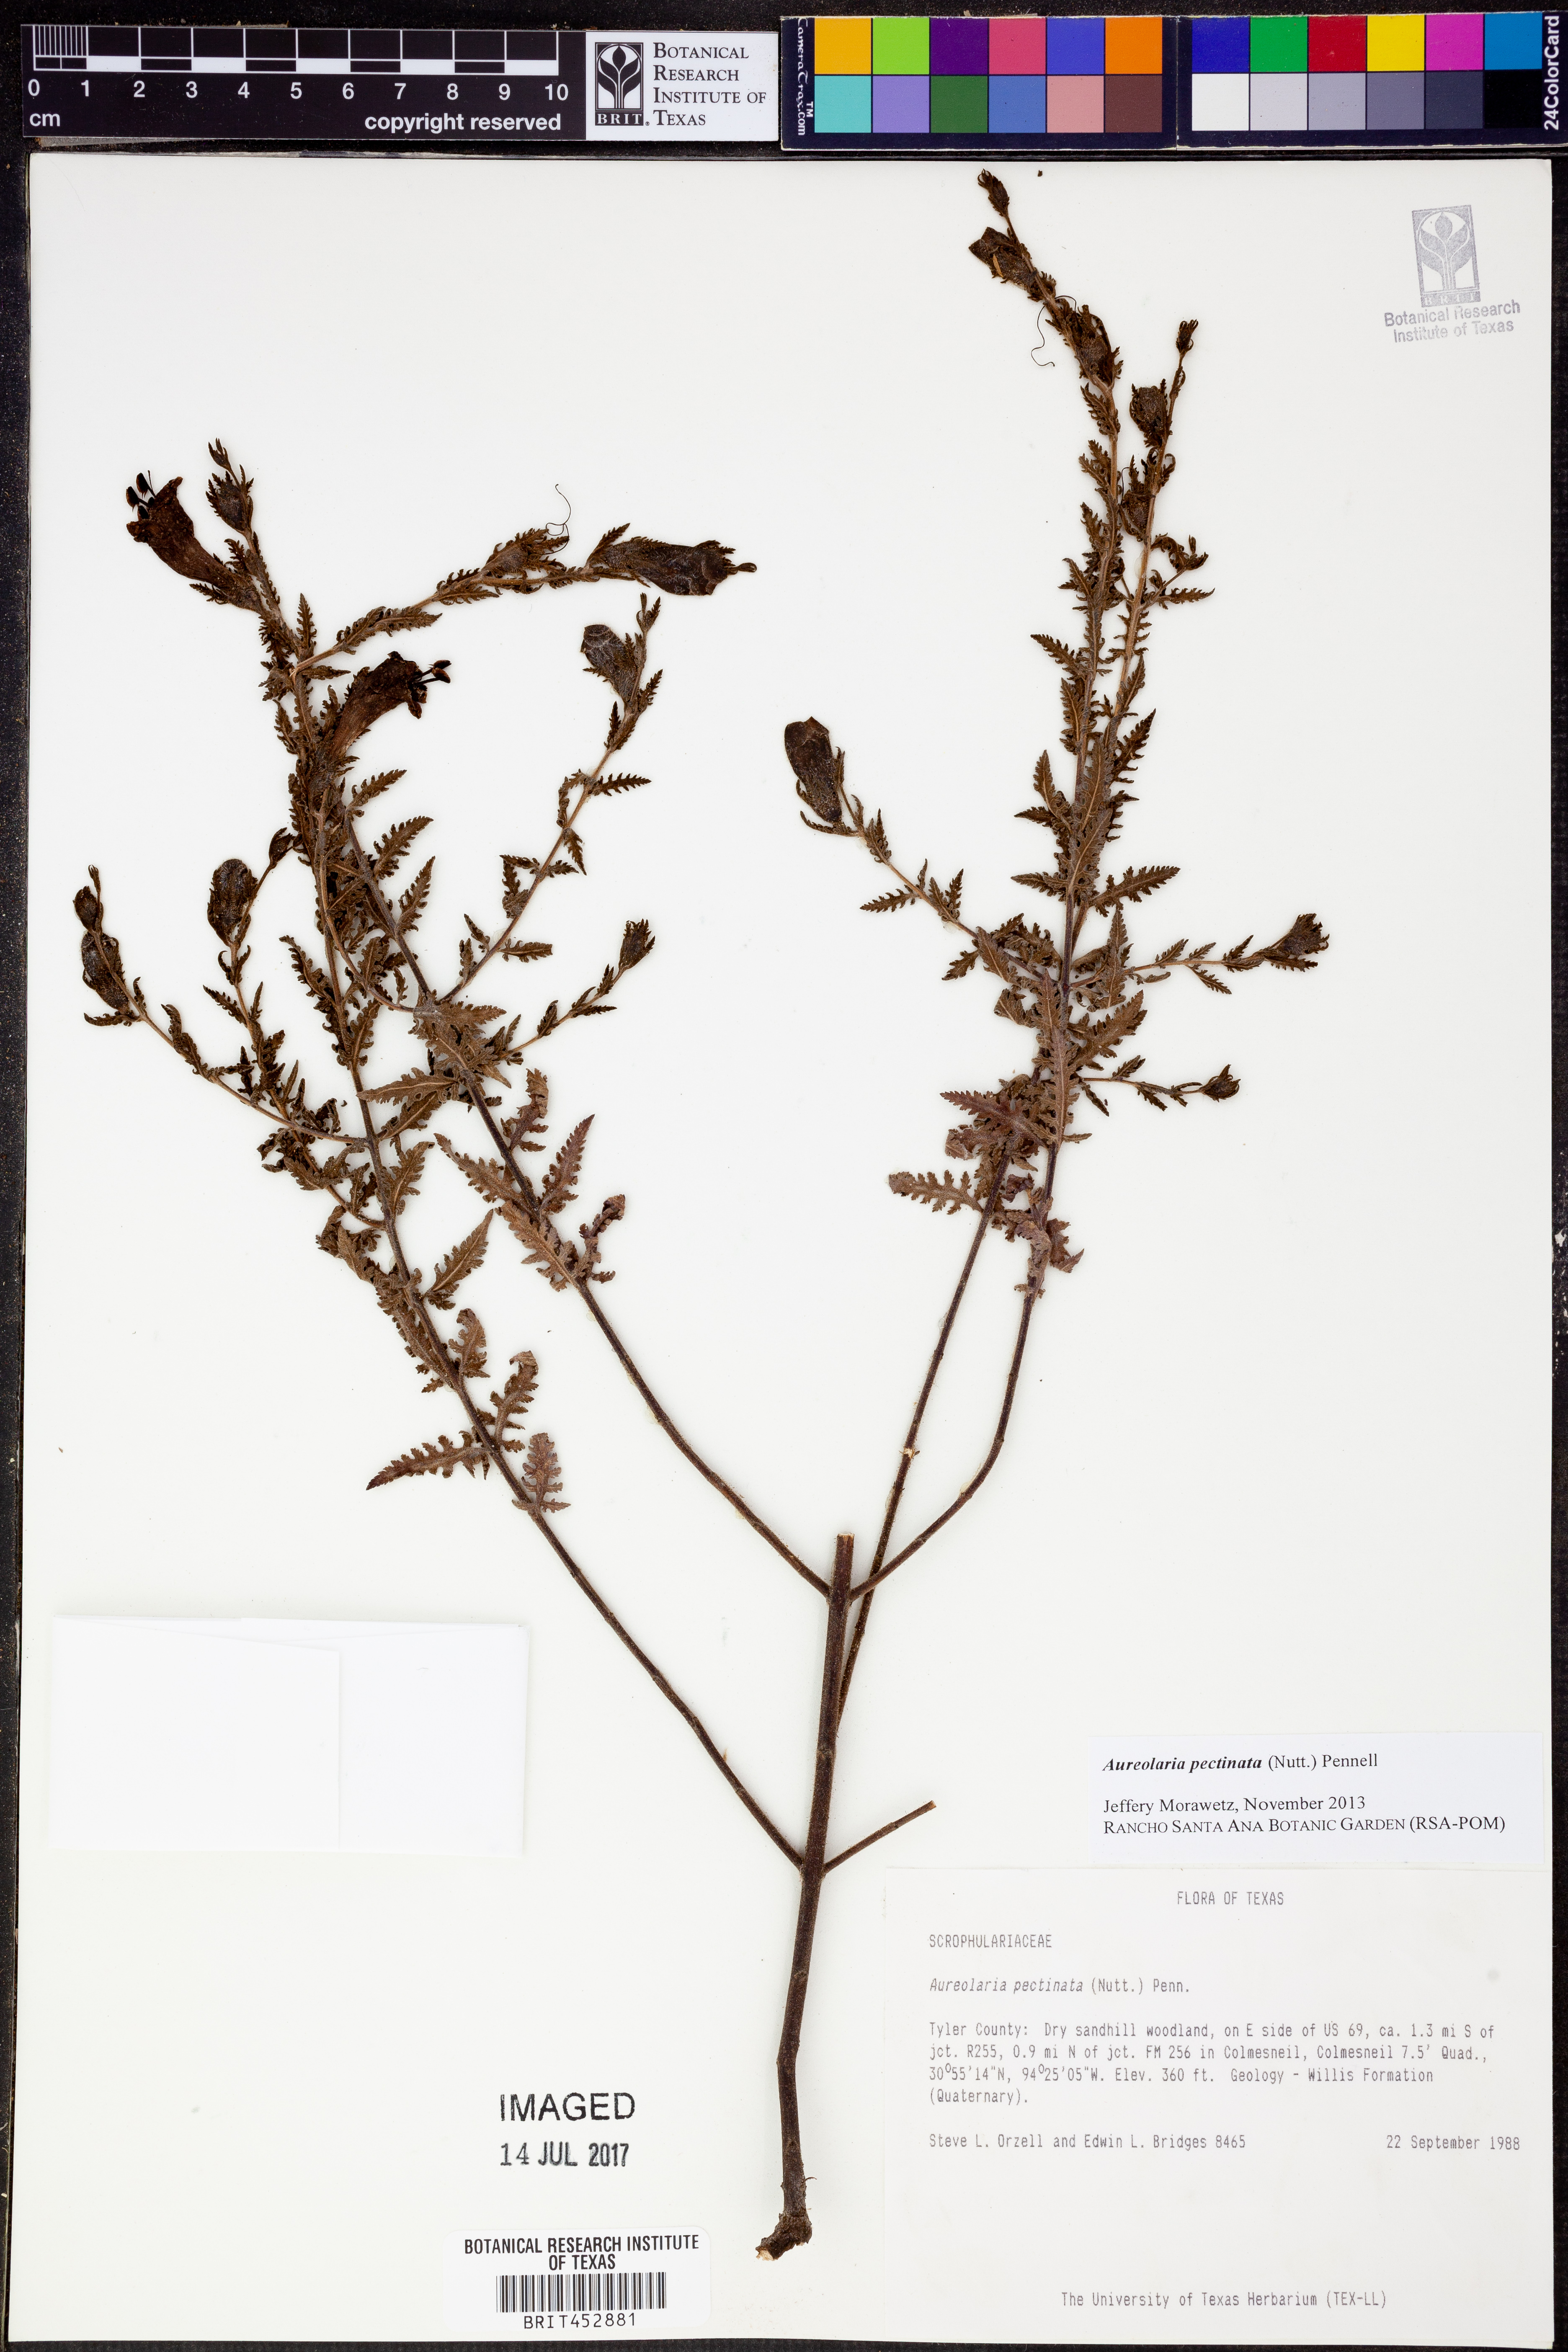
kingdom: Plantae
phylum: Tracheophyta
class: Magnoliopsida
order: Lamiales
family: Orobanchaceae
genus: Aureolaria
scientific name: Aureolaria pectinata
